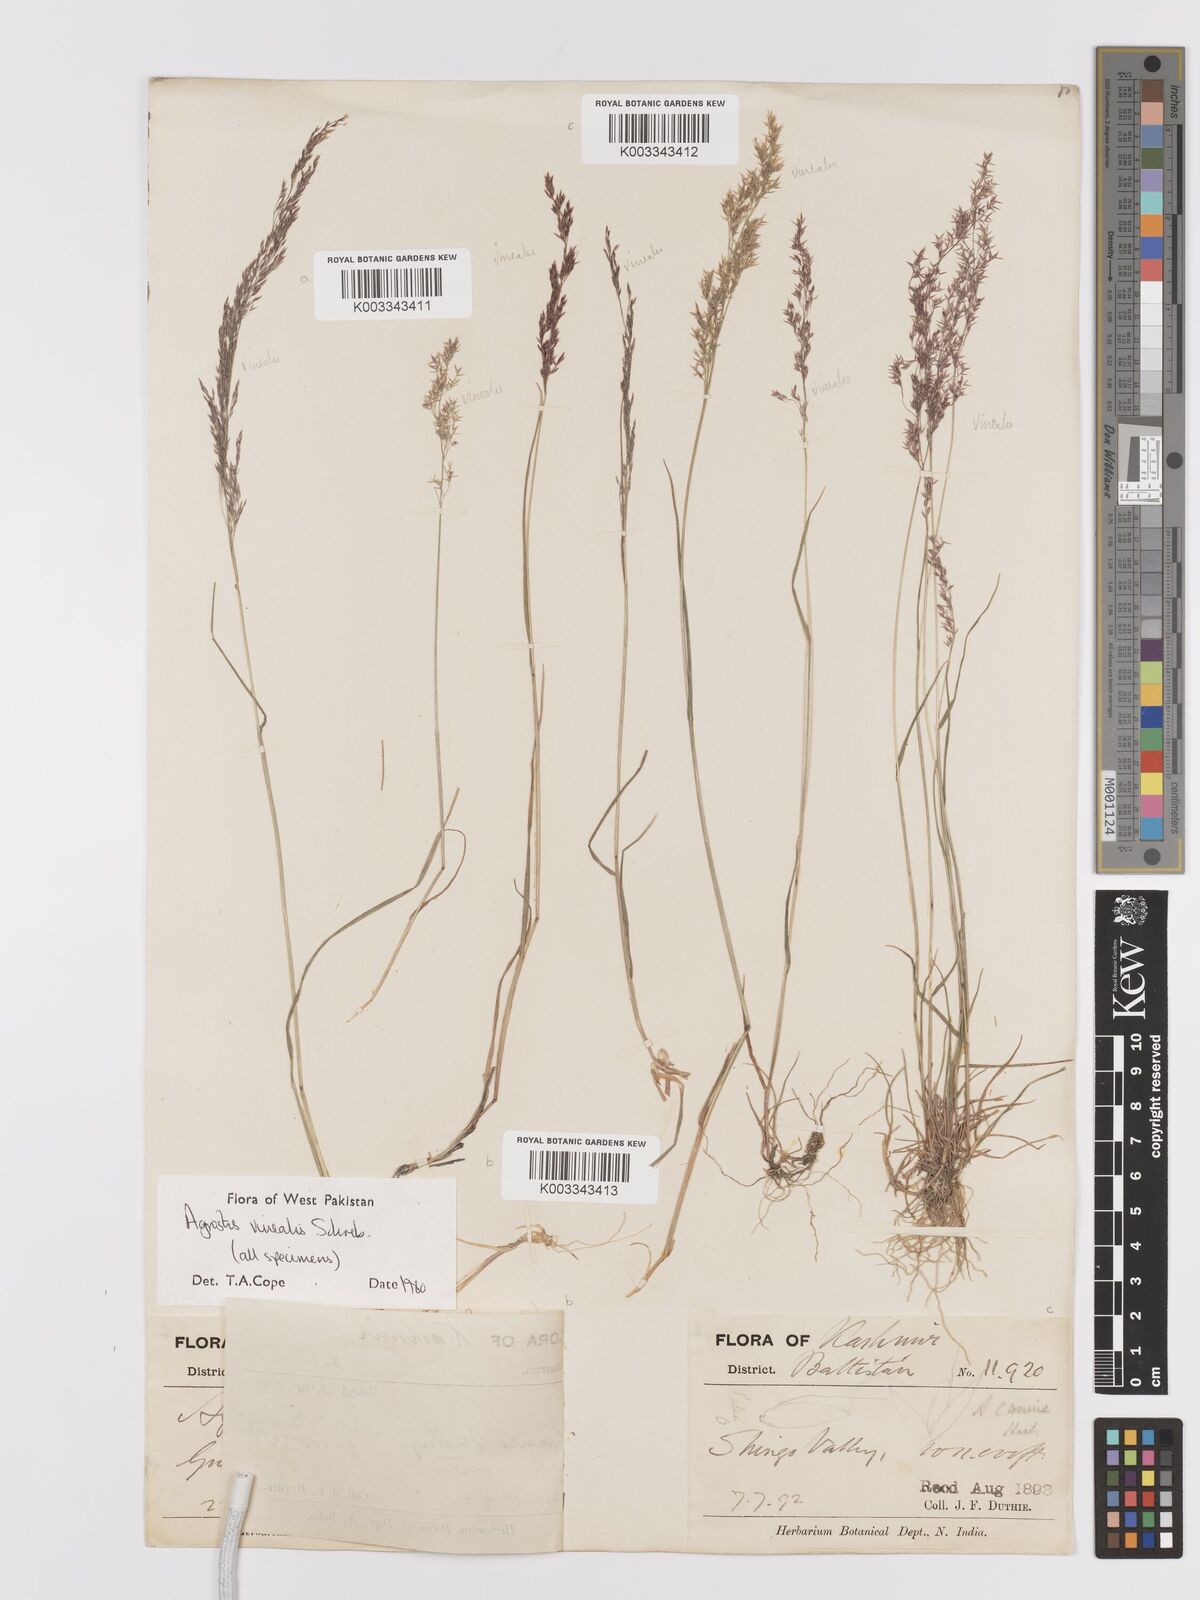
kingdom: Plantae
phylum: Tracheophyta
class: Liliopsida
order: Poales
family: Poaceae
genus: Agrostis
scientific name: Agrostis vinealis
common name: Brown bent
